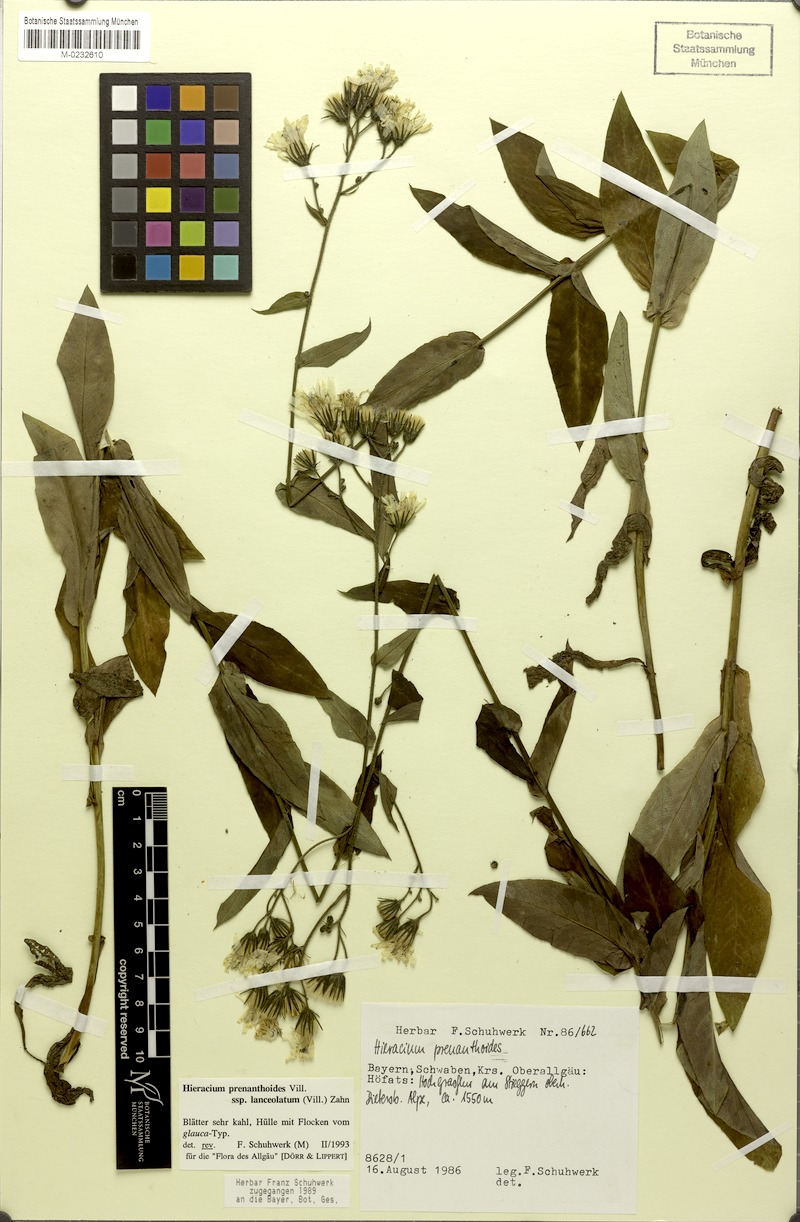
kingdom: Plantae
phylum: Tracheophyta
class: Magnoliopsida
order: Asterales
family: Asteraceae
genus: Hieracium
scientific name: Hieracium prenanthoides
